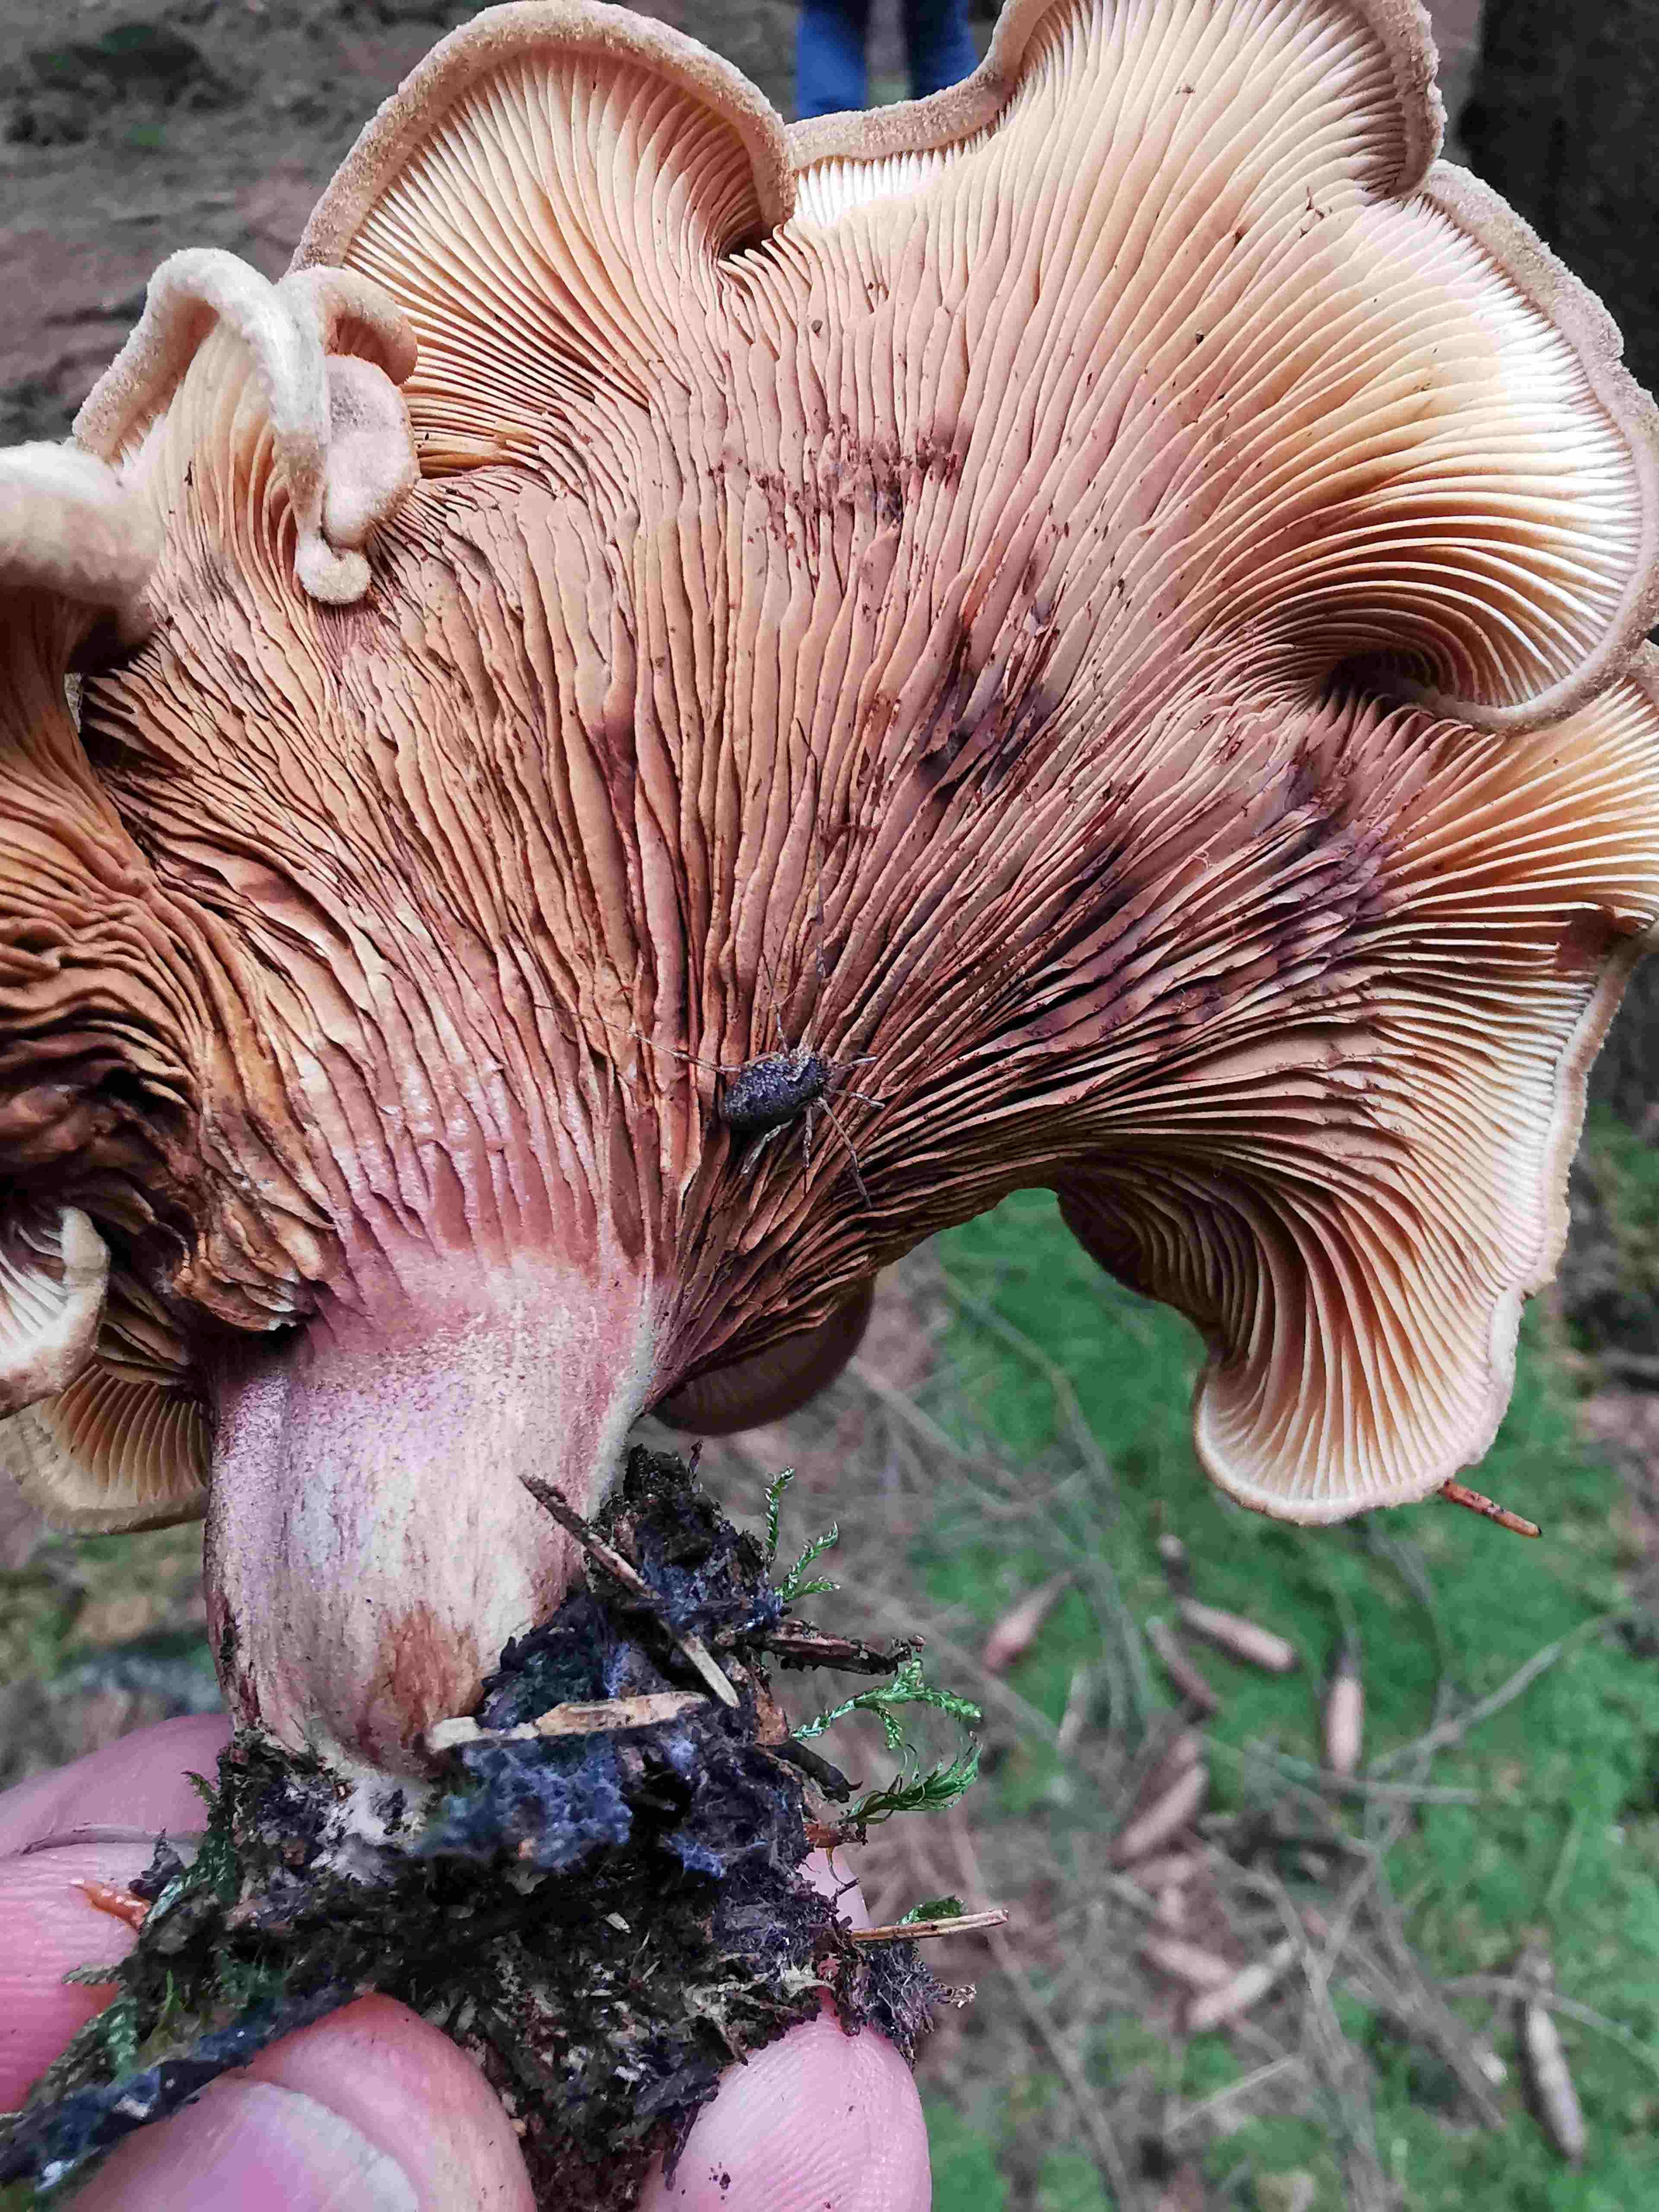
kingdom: Fungi
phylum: Basidiomycota
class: Agaricomycetes
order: Boletales
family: Paxillaceae
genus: Paxillus
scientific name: Paxillus
